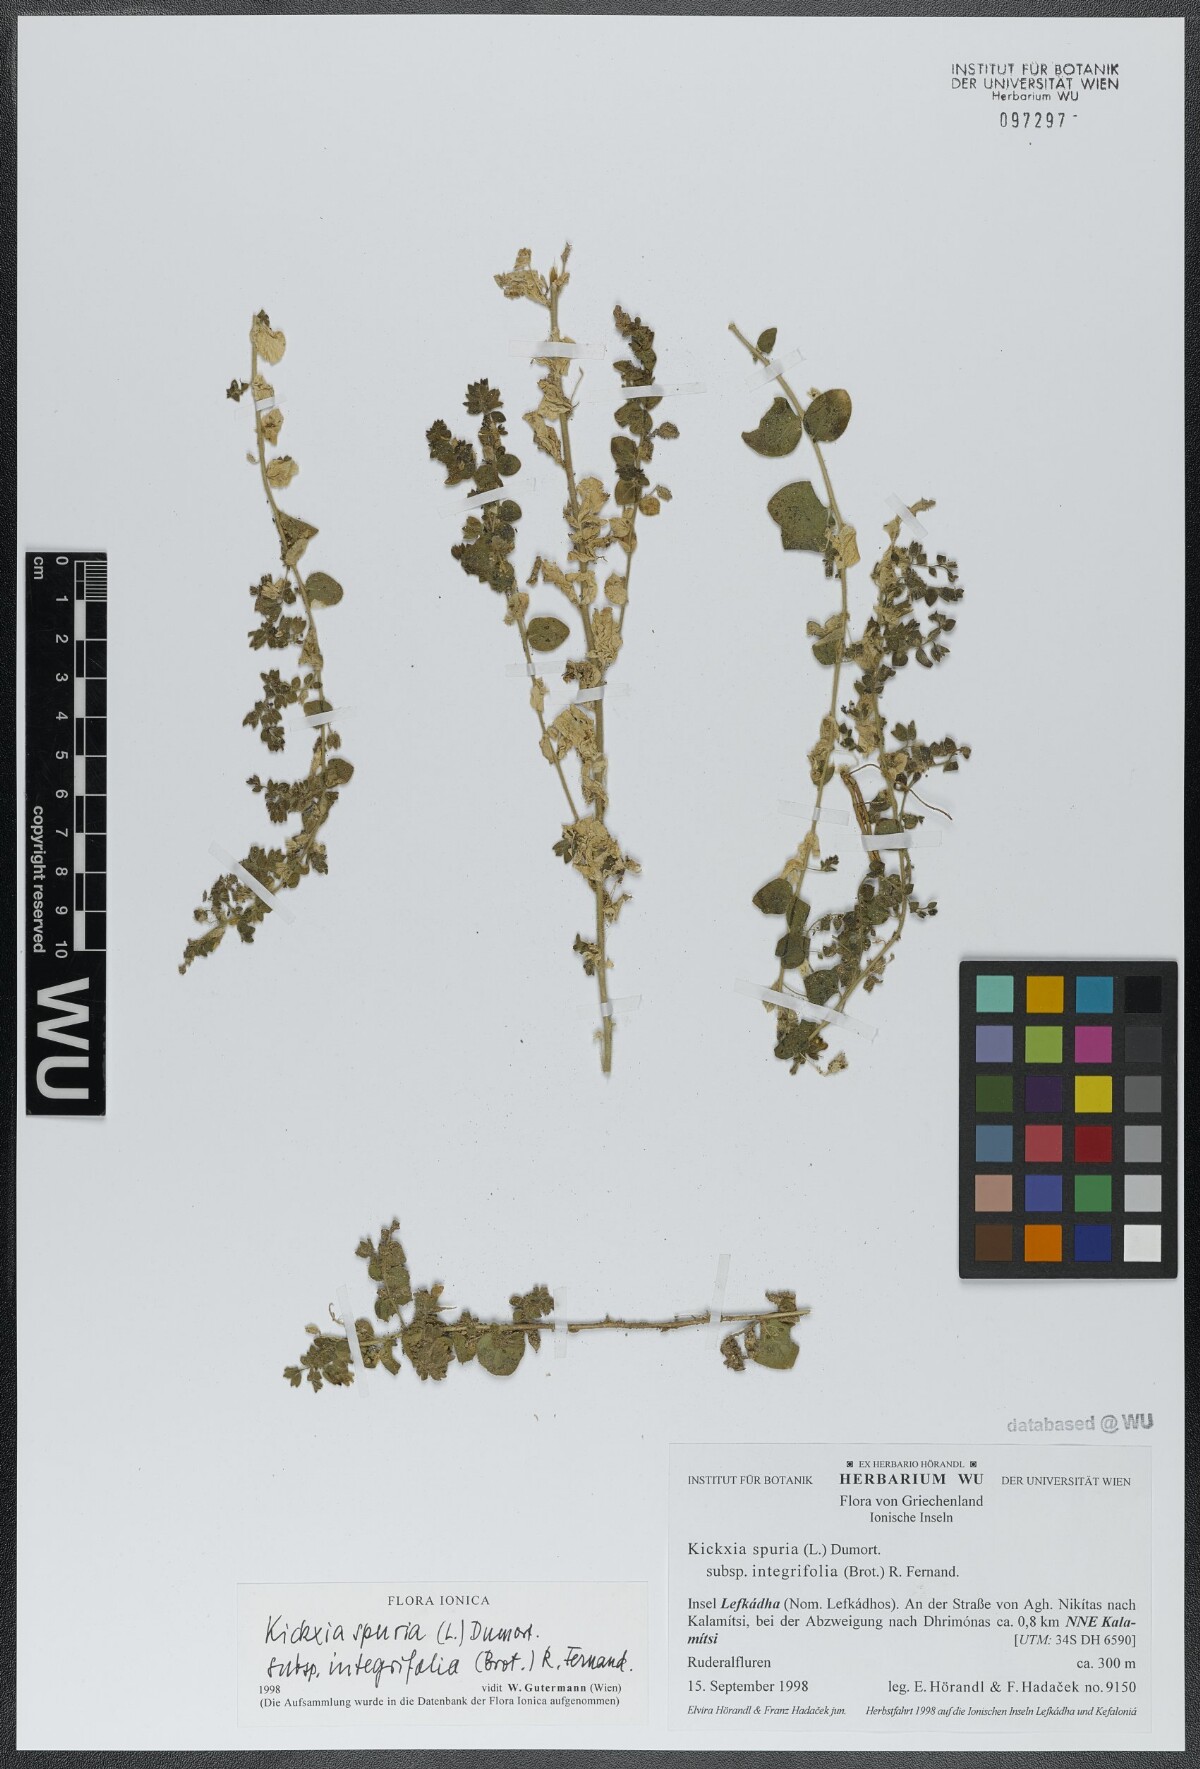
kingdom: Plantae
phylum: Tracheophyta
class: Magnoliopsida
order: Lamiales
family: Plantaginaceae
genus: Kickxia
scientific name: Kickxia spuria
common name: Round-leaved fluellen
